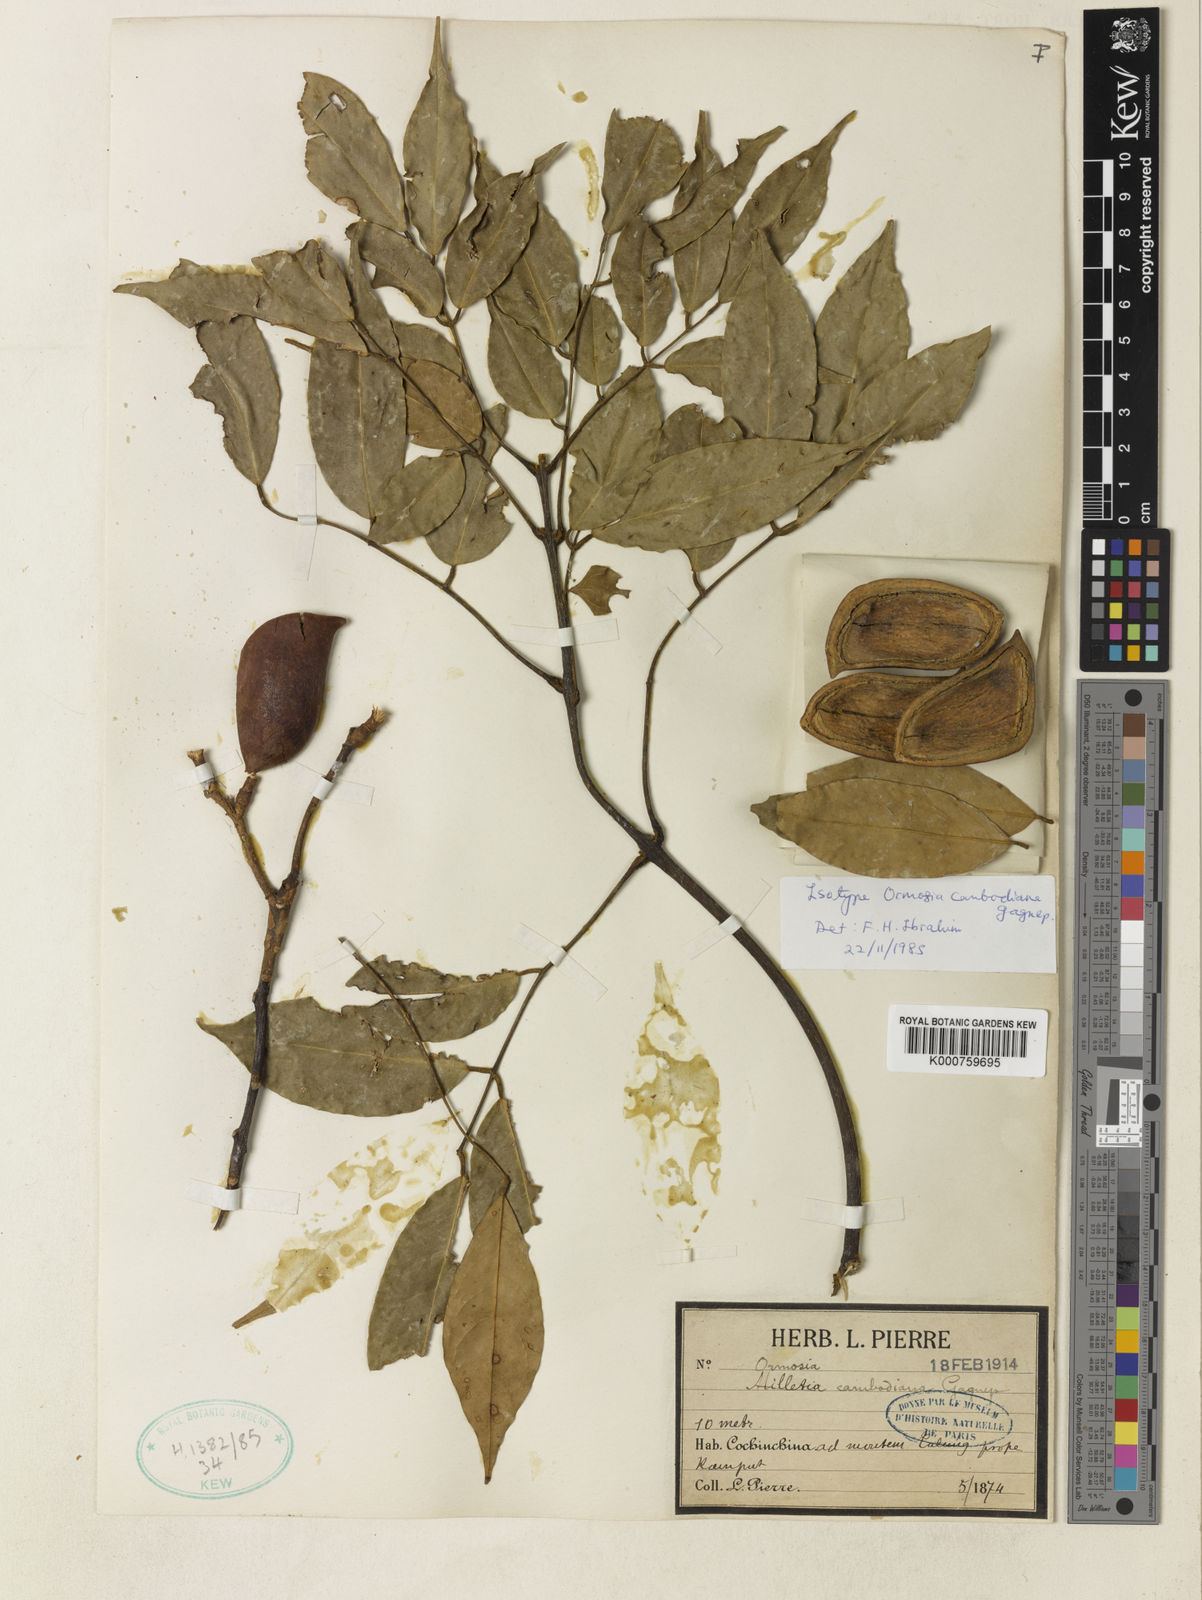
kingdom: Plantae
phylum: Tracheophyta
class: Magnoliopsida
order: Fabales
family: Fabaceae
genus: Ormosia
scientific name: Ormosia cambodiana
